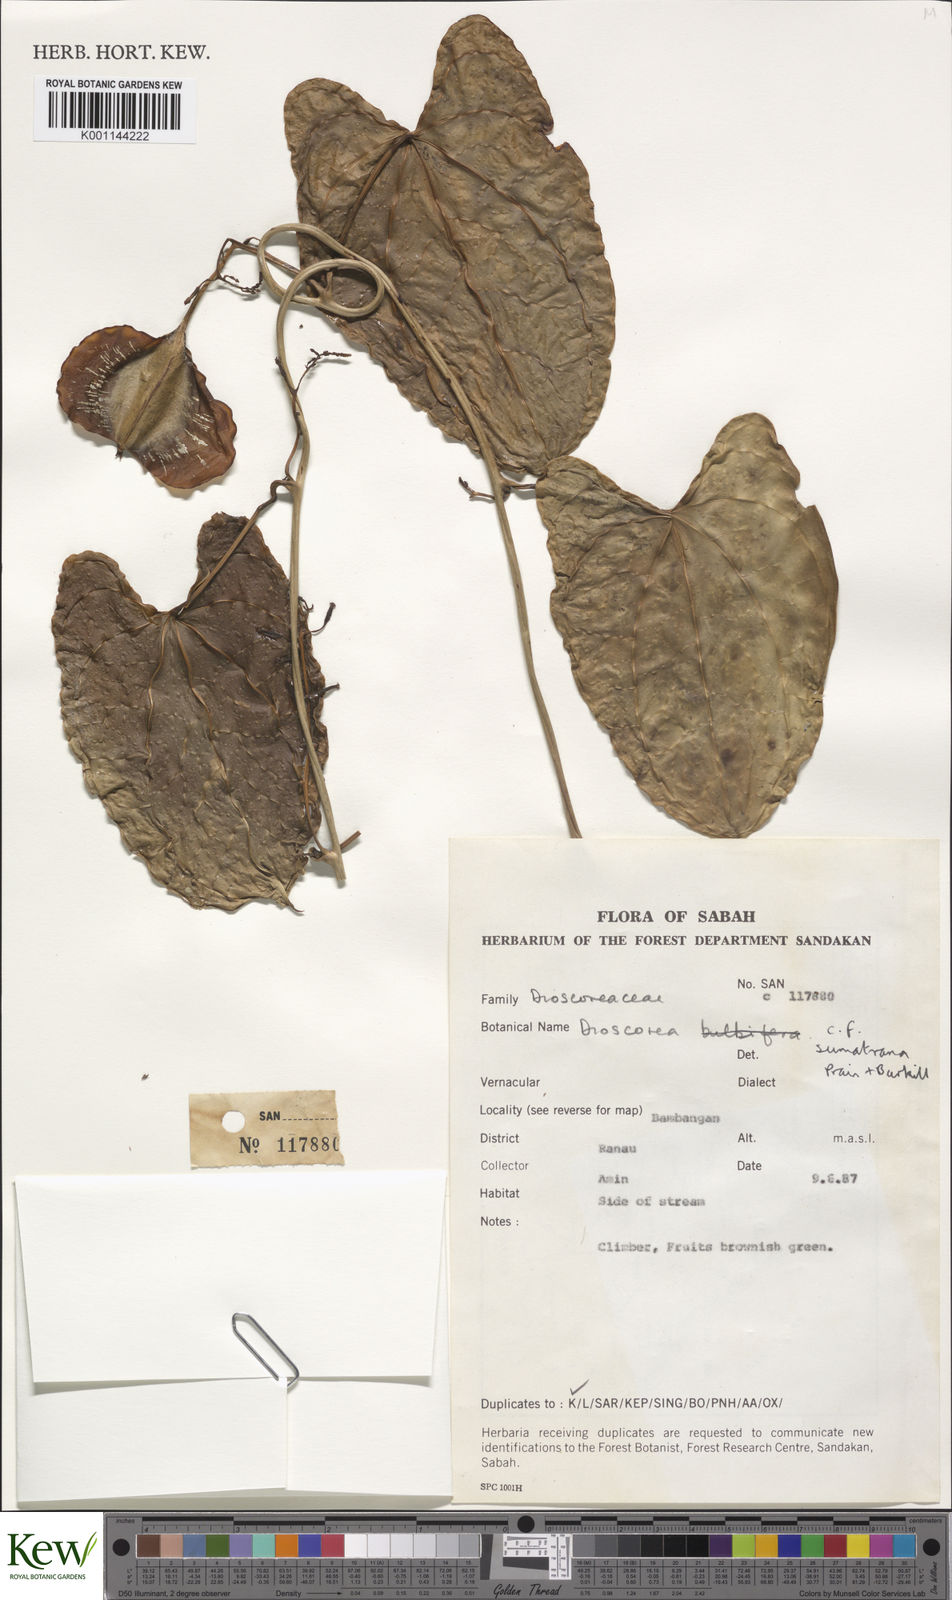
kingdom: Plantae
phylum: Tracheophyta
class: Liliopsida
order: Dioscoreales
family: Dioscoreaceae
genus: Dioscorea
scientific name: Dioscorea sumatrana
